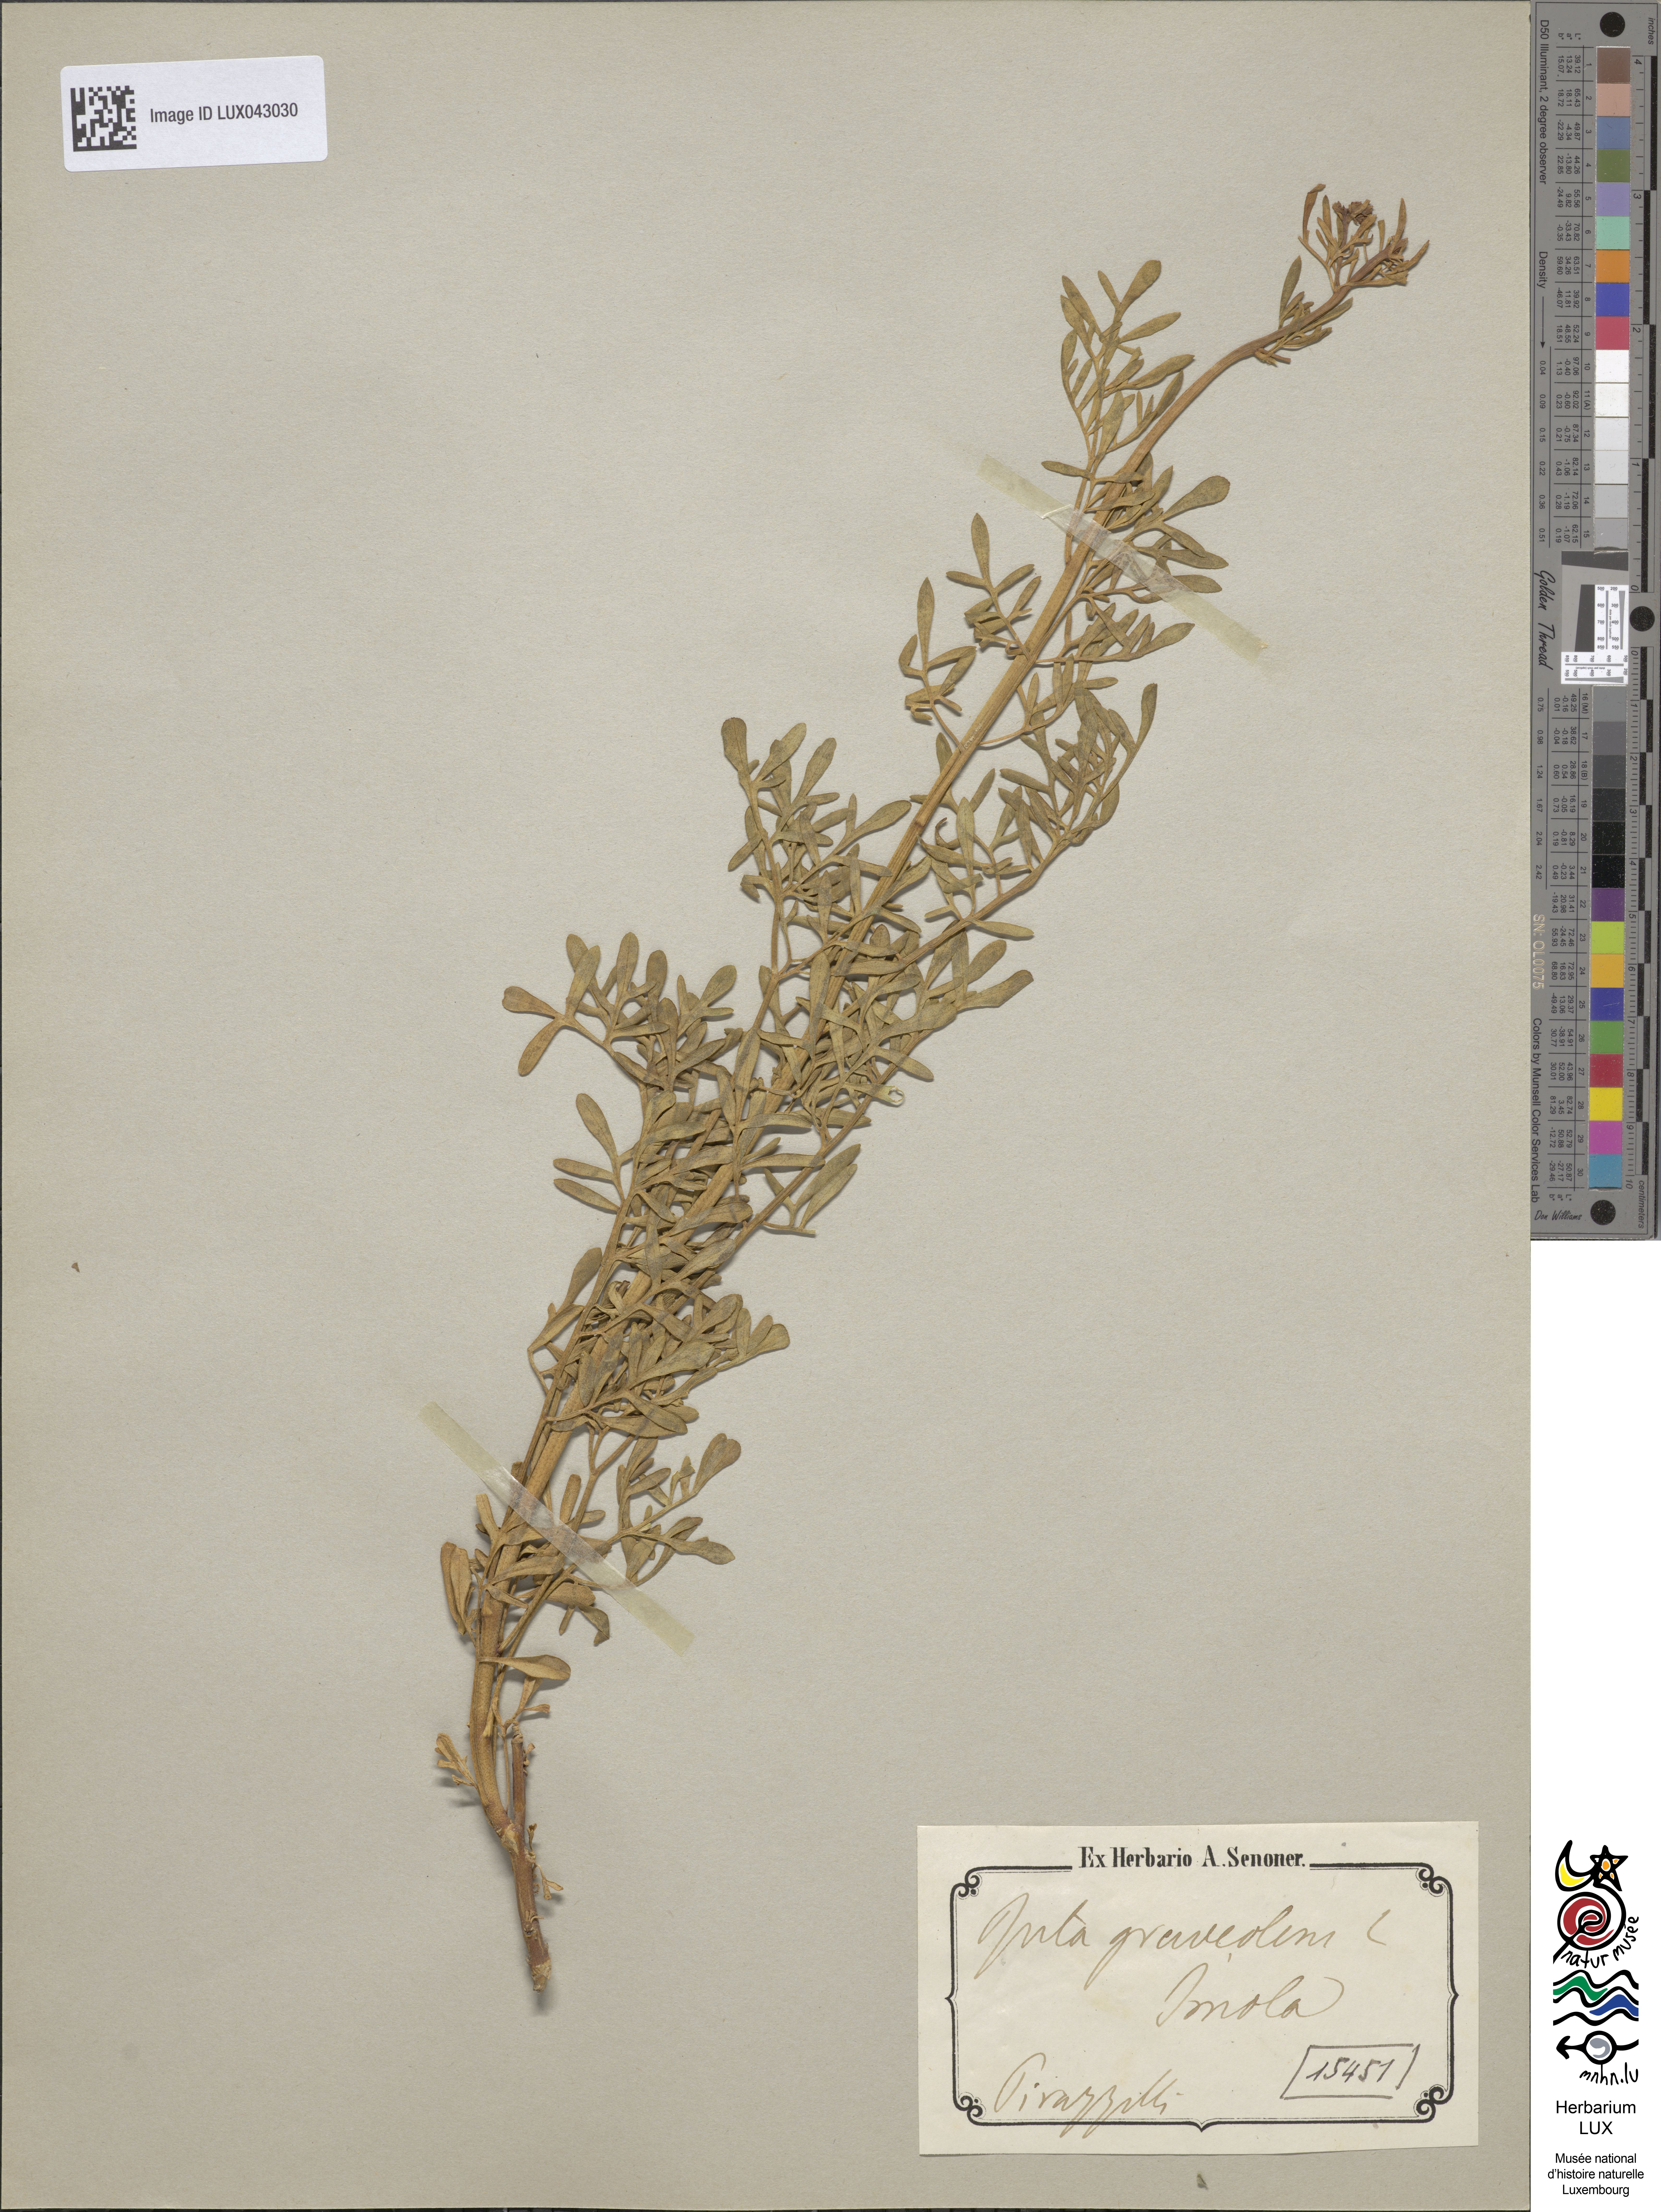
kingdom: Plantae
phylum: Tracheophyta
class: Magnoliopsida
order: Sapindales
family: Rutaceae
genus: Ruta
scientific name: Ruta graveolens
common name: Common rue
